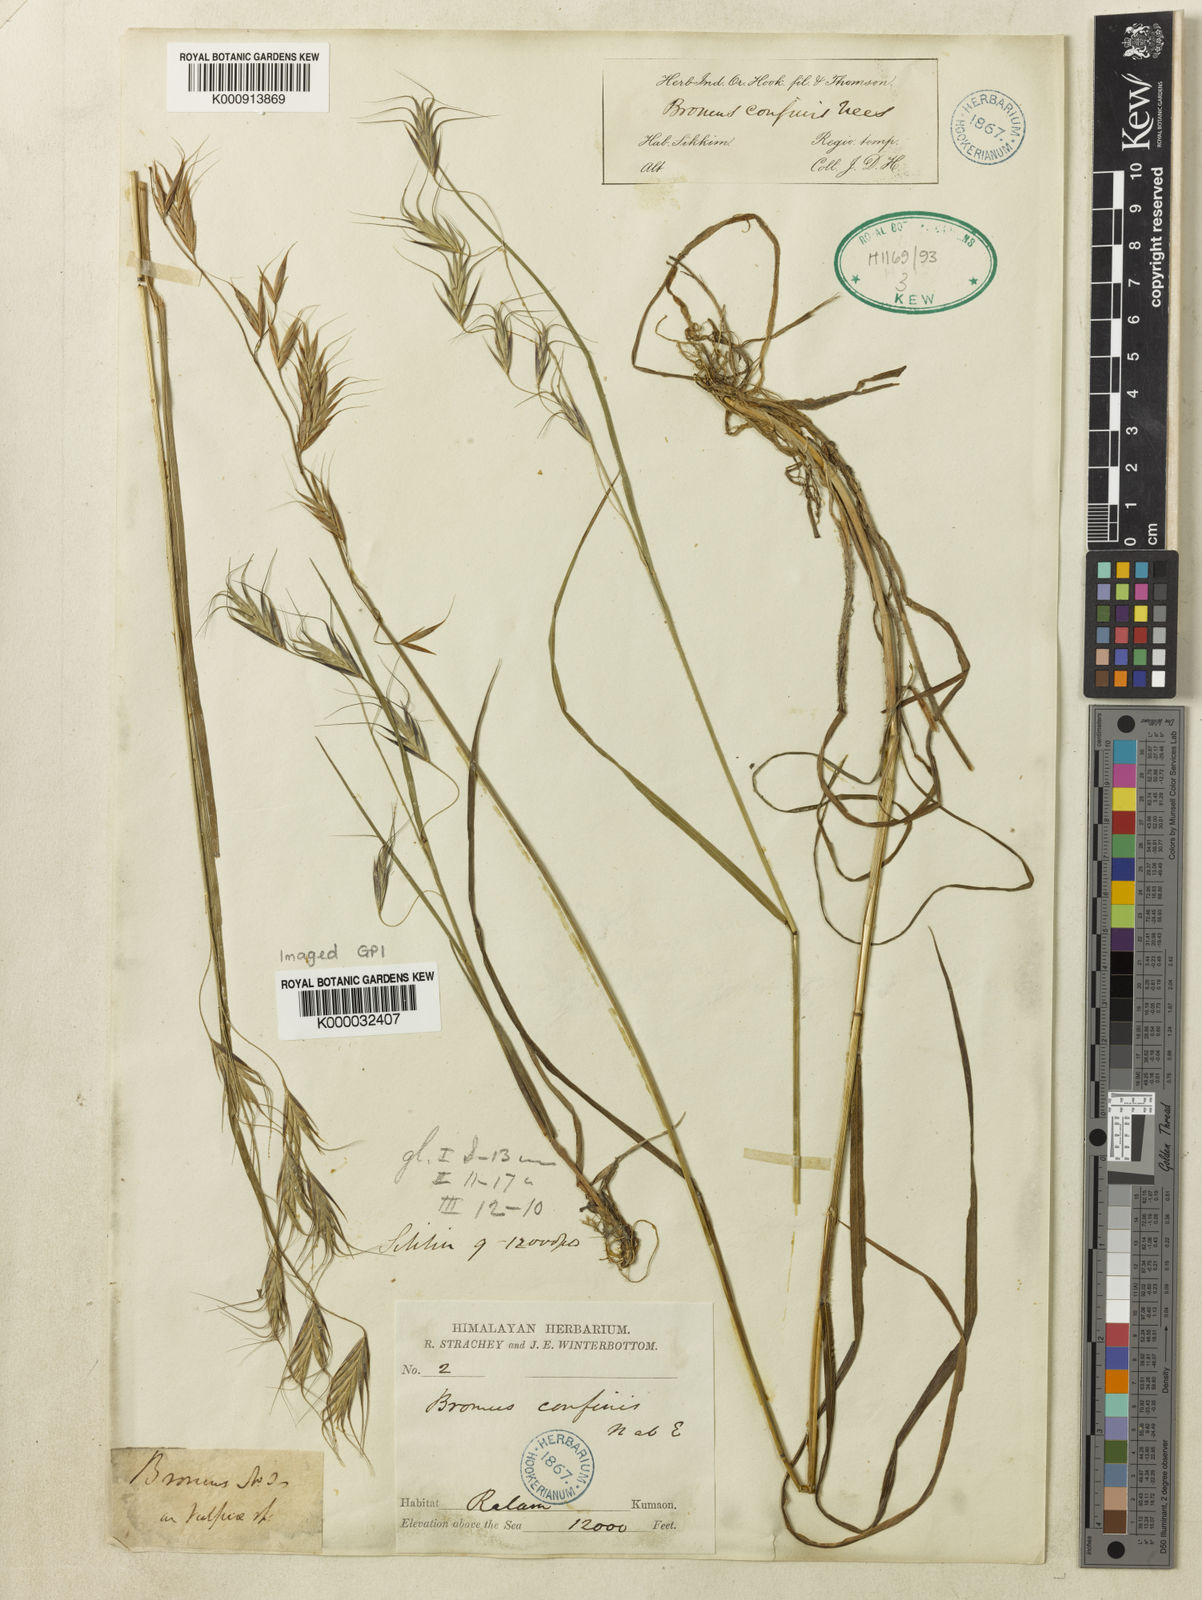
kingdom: Plantae
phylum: Tracheophyta
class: Liliopsida
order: Poales
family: Poaceae
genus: Bromus
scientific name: Bromus porphyranthos
